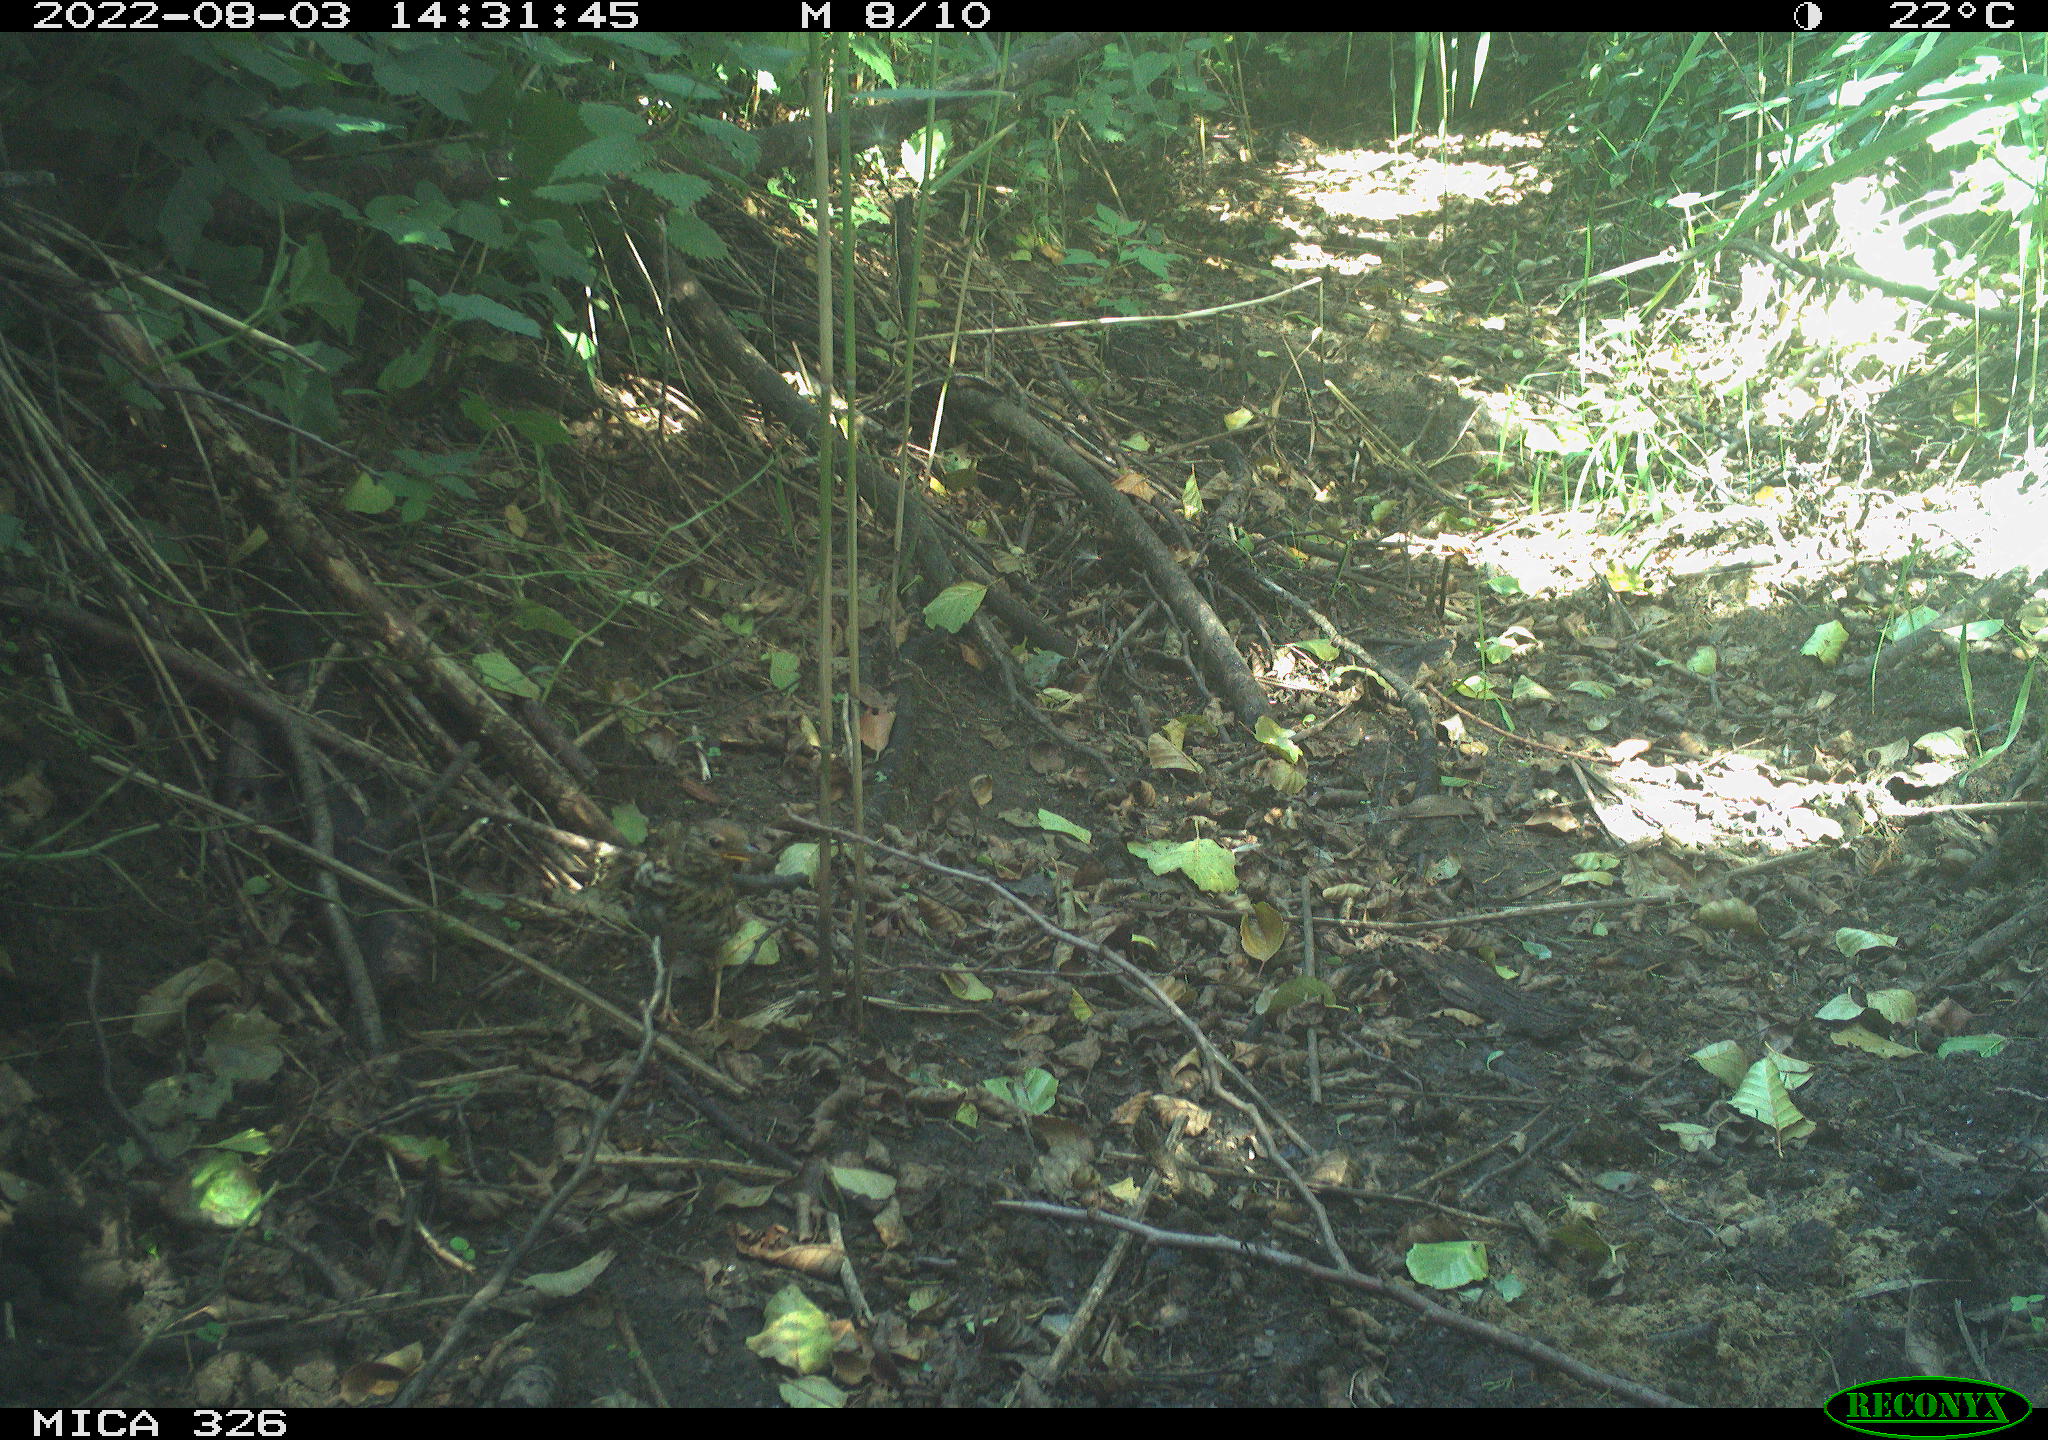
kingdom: Animalia
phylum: Chordata
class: Aves
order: Passeriformes
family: Turdidae
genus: Turdus
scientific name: Turdus philomelos
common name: Song thrush
